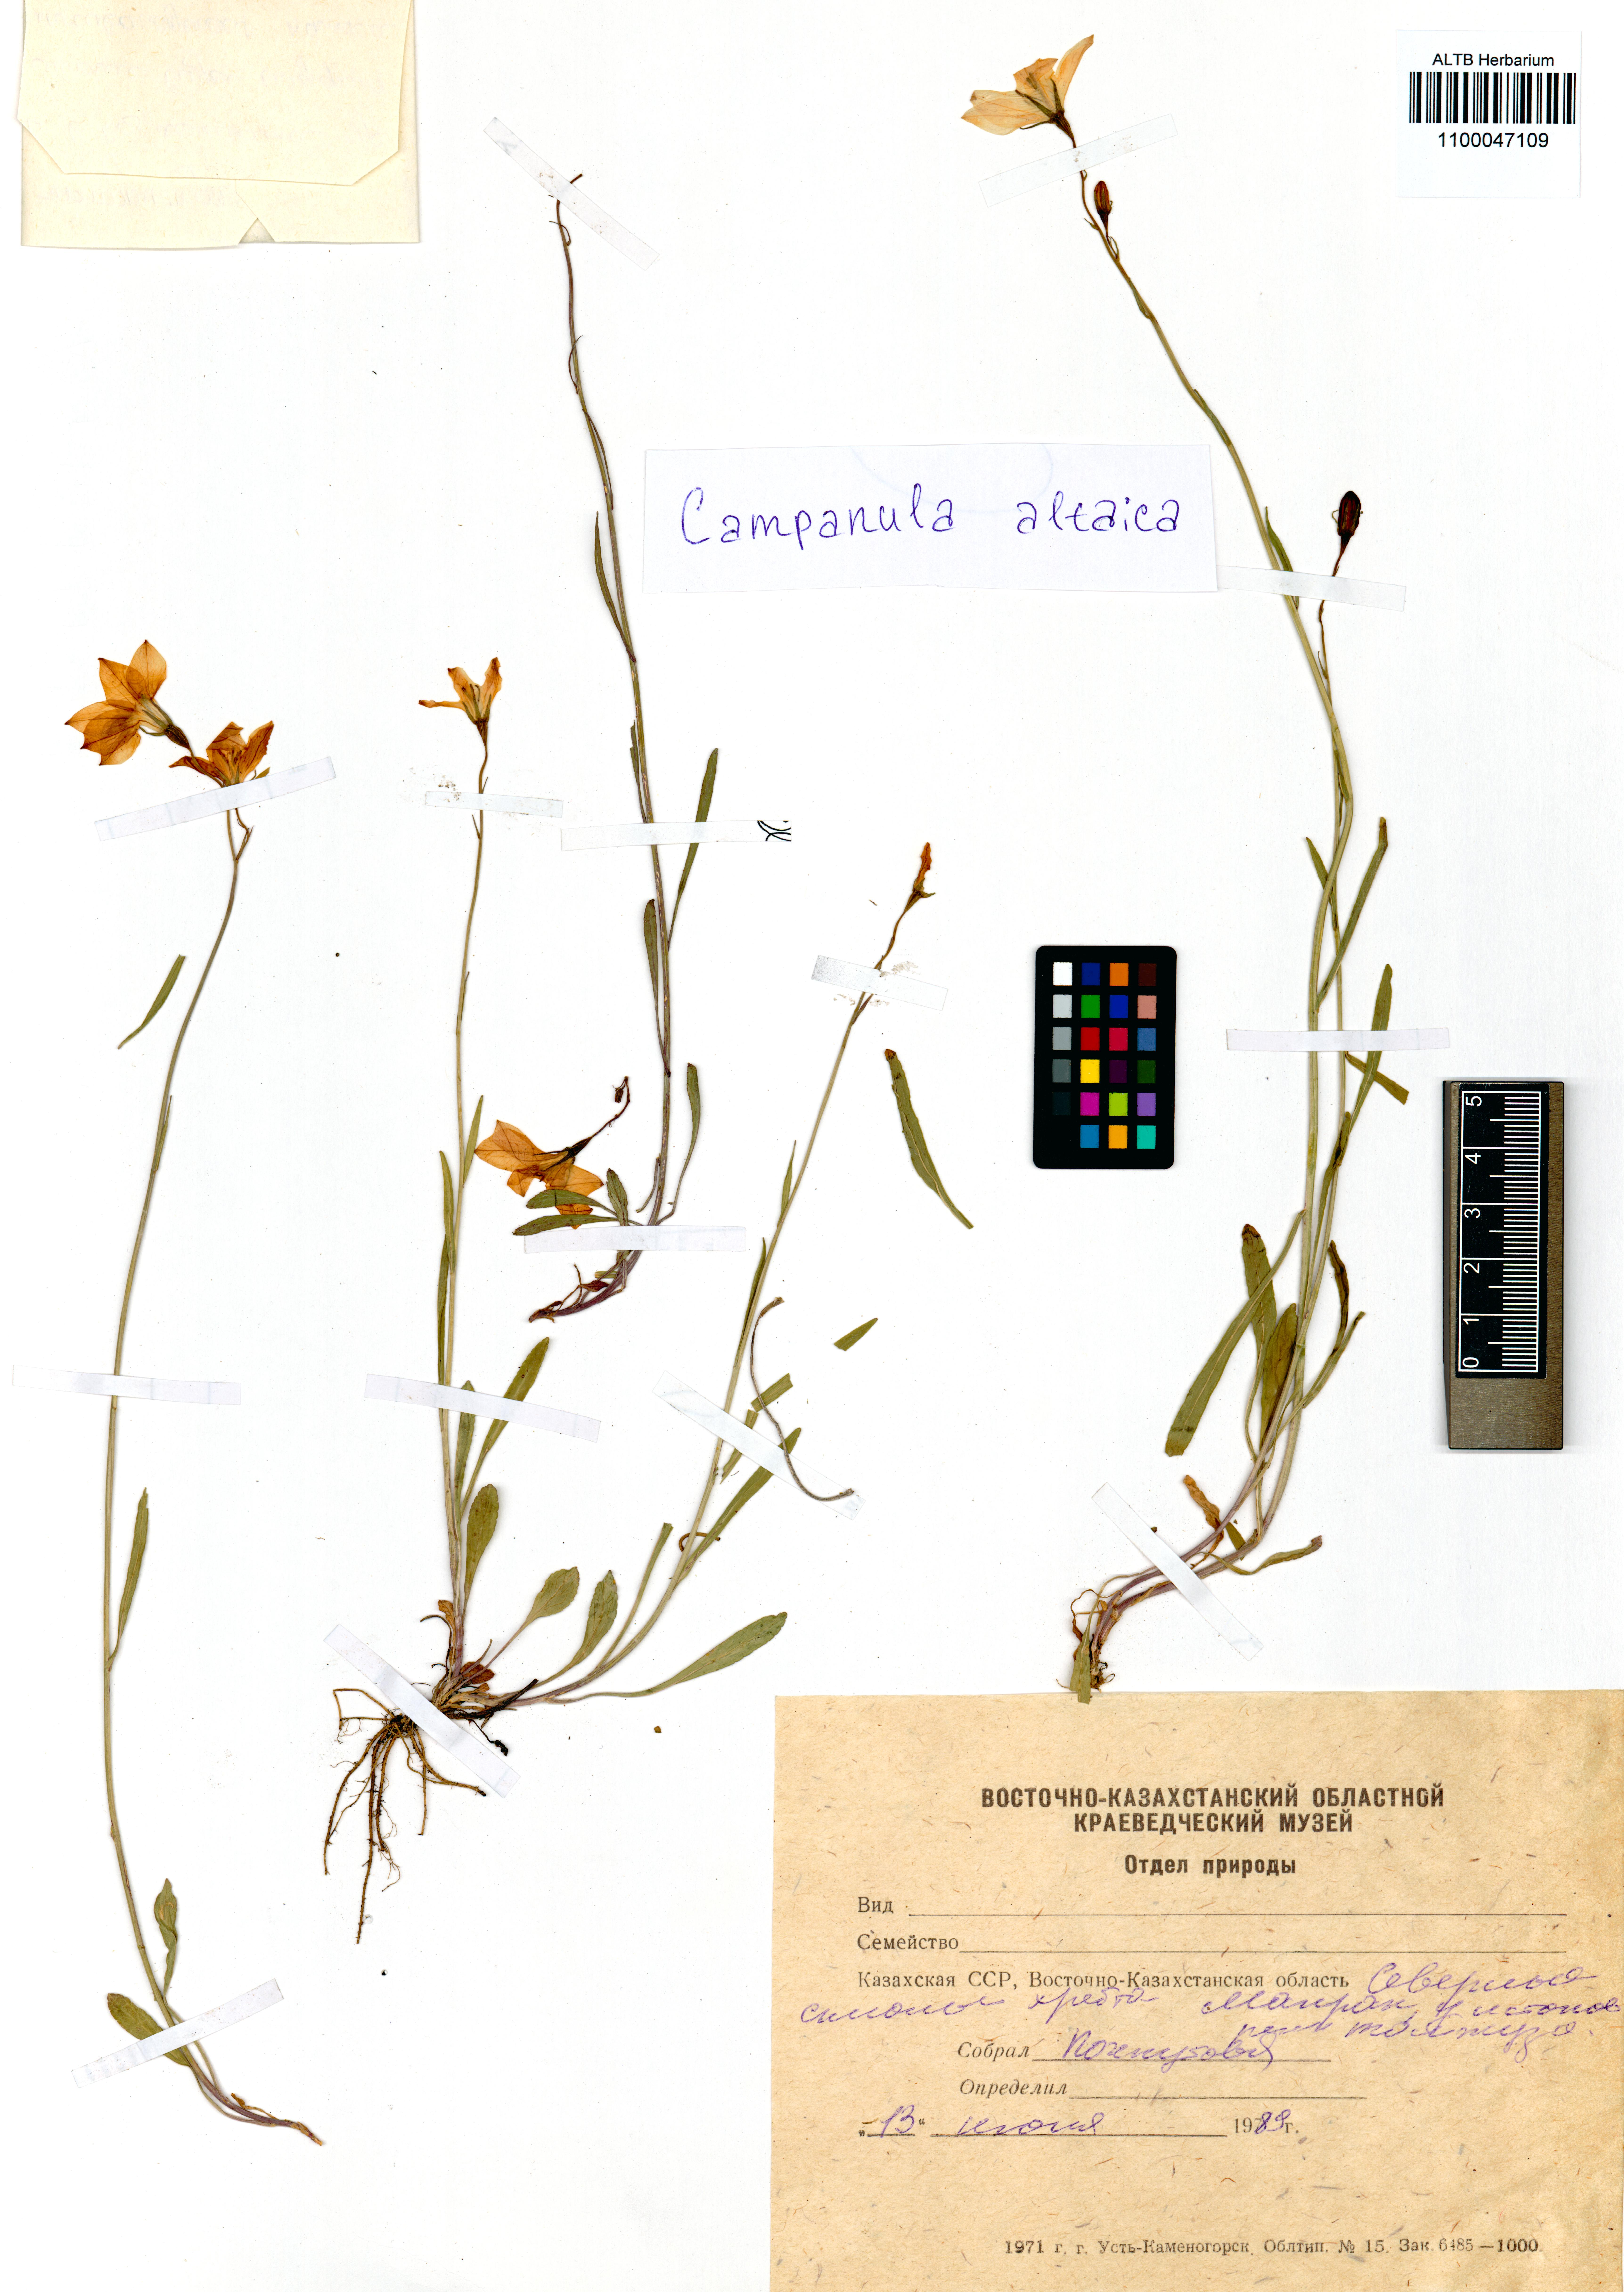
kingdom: Plantae
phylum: Tracheophyta
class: Magnoliopsida
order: Asterales
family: Campanulaceae
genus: Campanula
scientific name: Campanula stevenii
